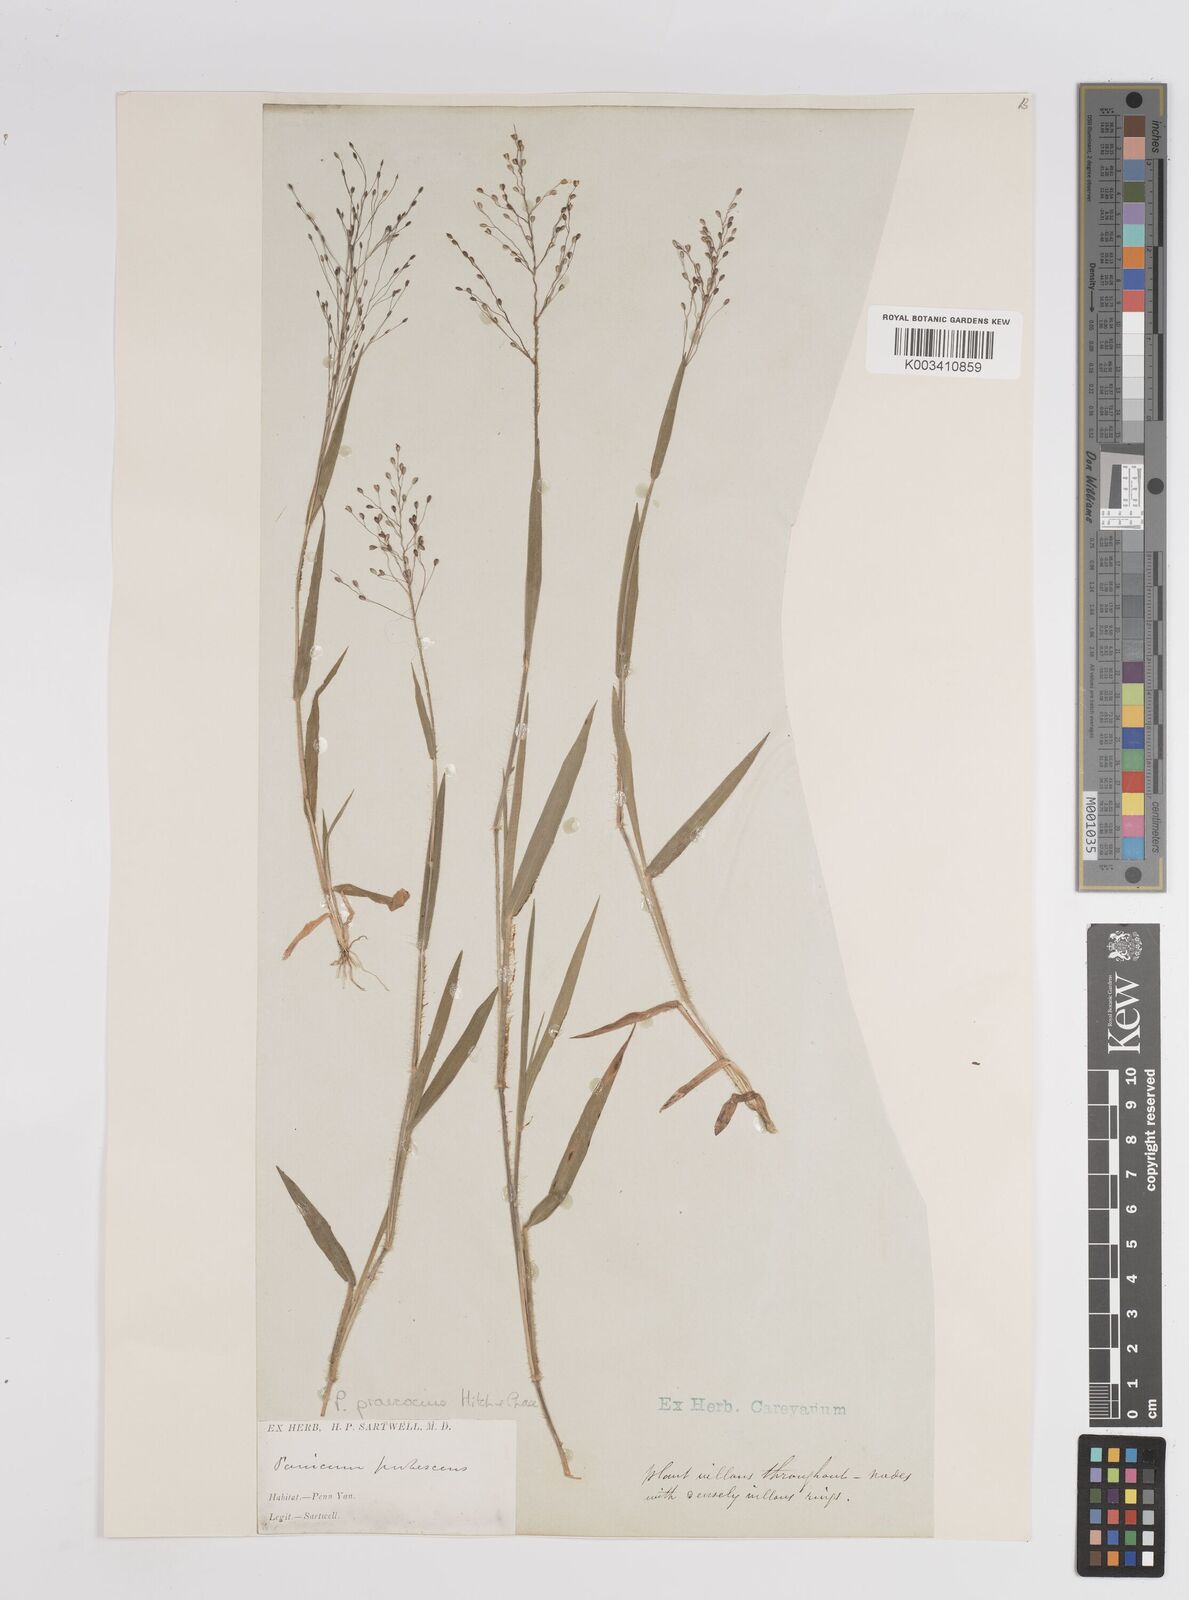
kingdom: Plantae
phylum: Tracheophyta
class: Liliopsida
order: Poales
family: Poaceae
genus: Dichanthelium
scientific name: Dichanthelium praecocius
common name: Early-branching panicgrass
